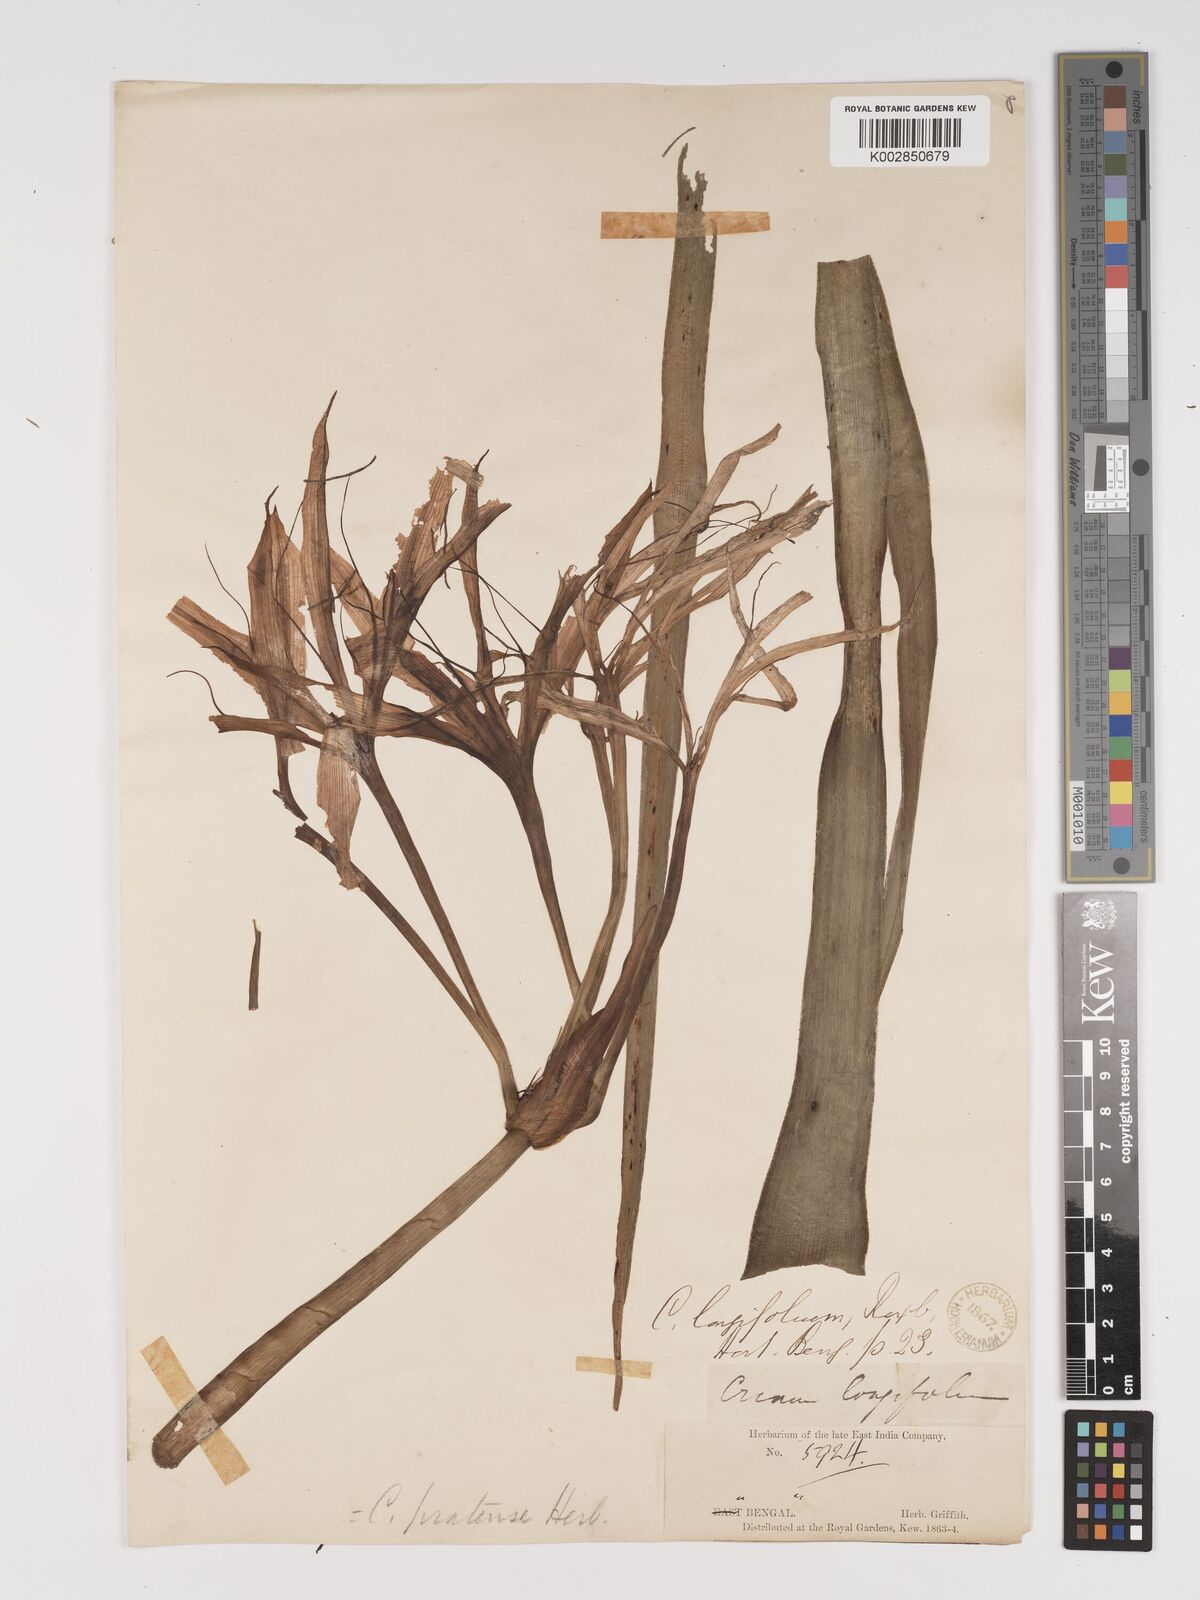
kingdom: Plantae
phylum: Tracheophyta
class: Liliopsida
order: Asparagales
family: Amaryllidaceae
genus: Crinum
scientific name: Crinum lorifolium
